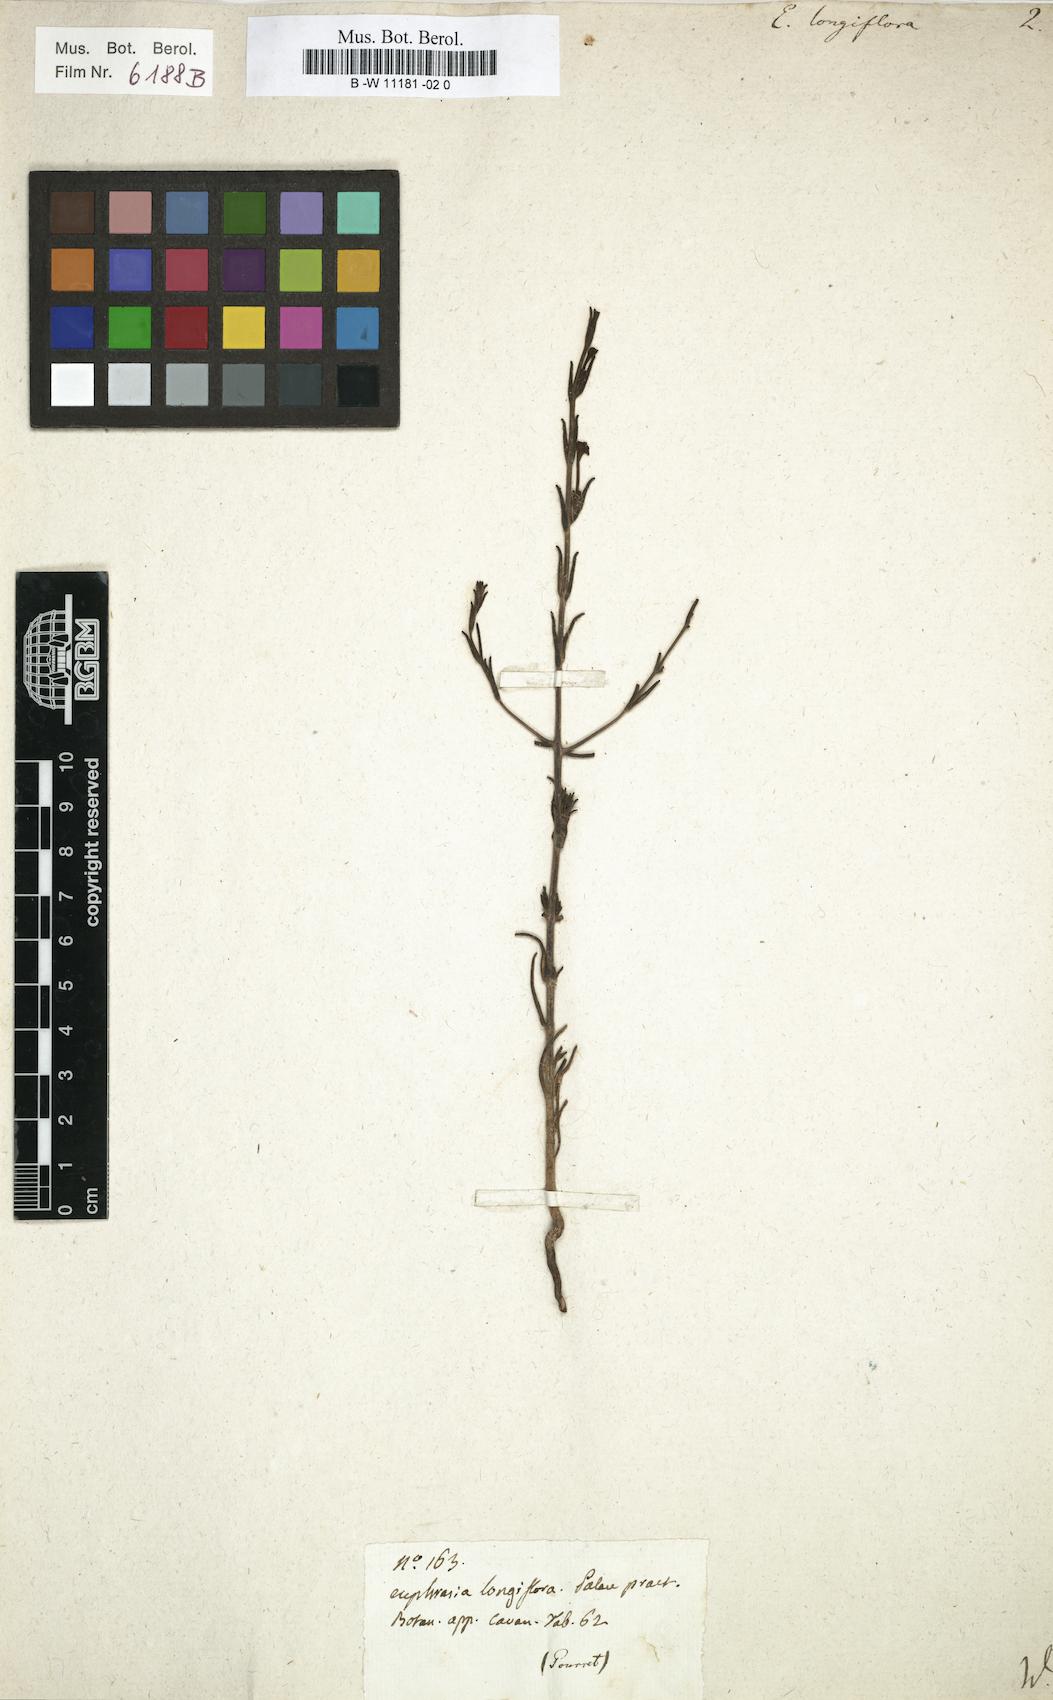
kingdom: Plantae
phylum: Tracheophyta
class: Magnoliopsida
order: Lamiales
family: Orobanchaceae
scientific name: Orobanchaceae
